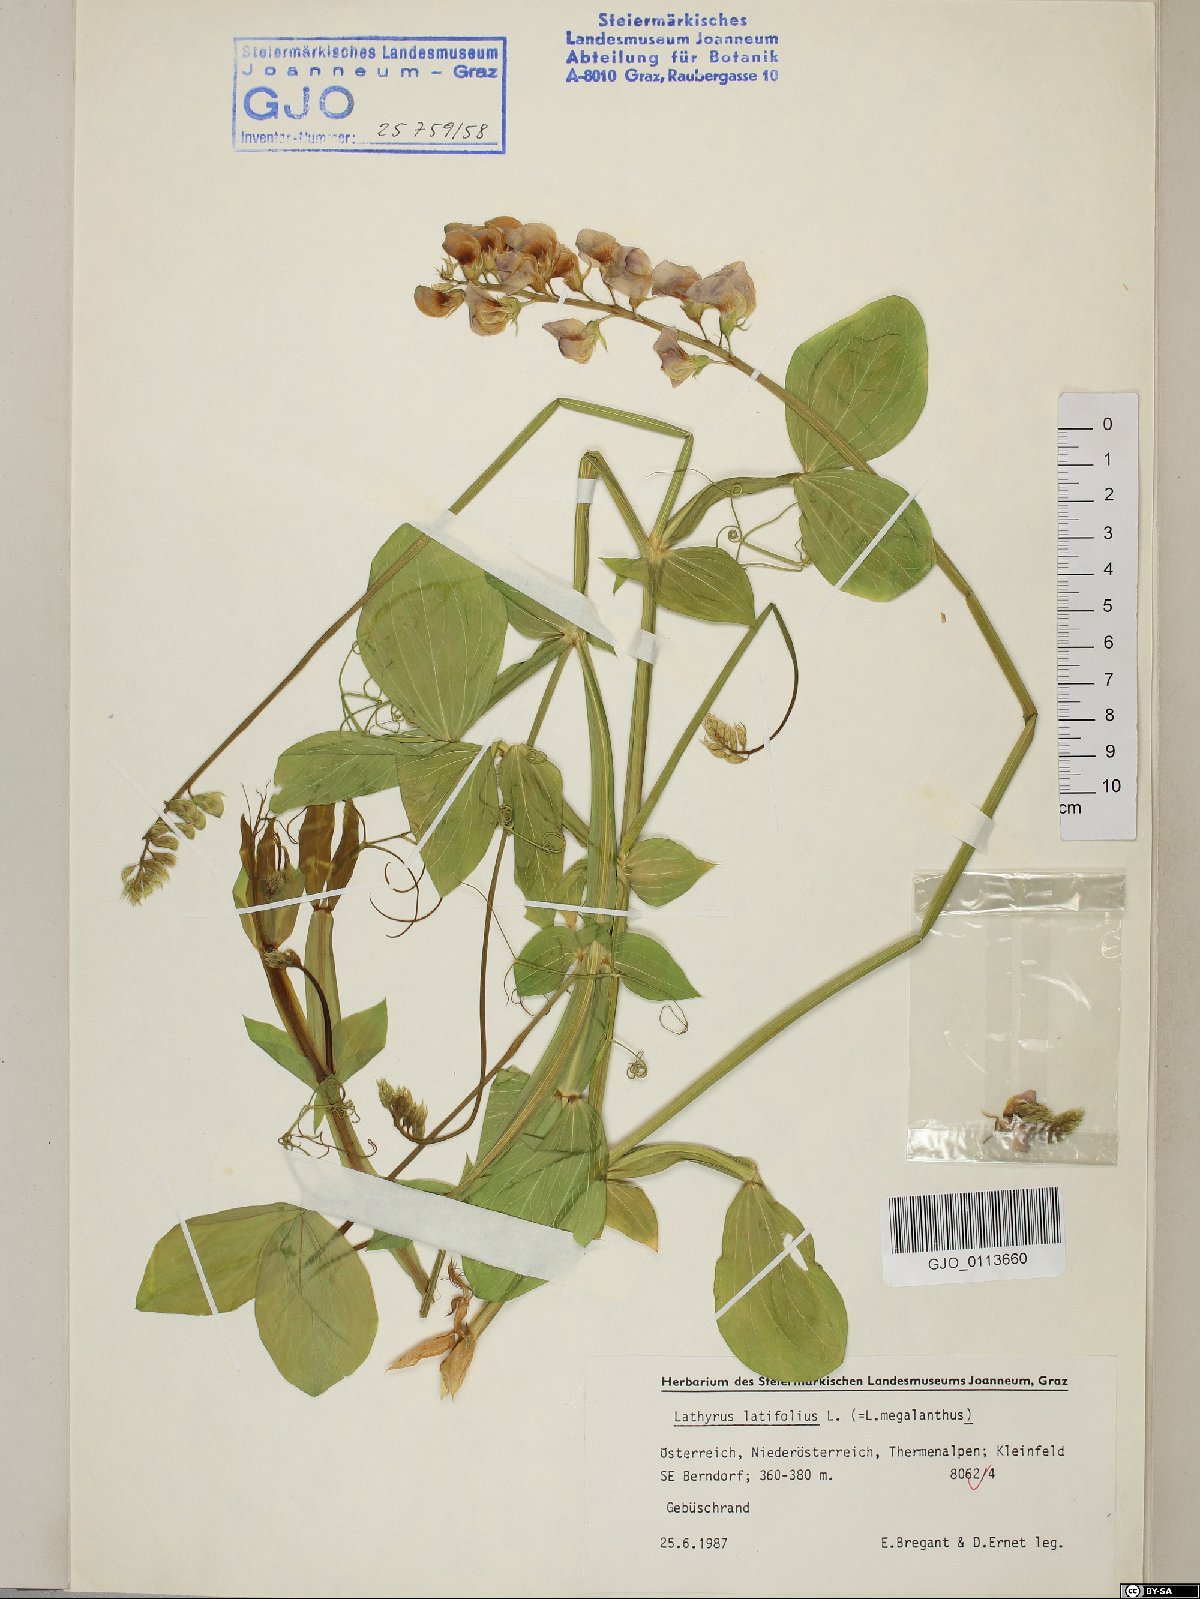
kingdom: Plantae
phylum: Tracheophyta
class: Magnoliopsida
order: Fabales
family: Fabaceae
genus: Lathyrus
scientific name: Lathyrus latifolius
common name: Perennial pea
